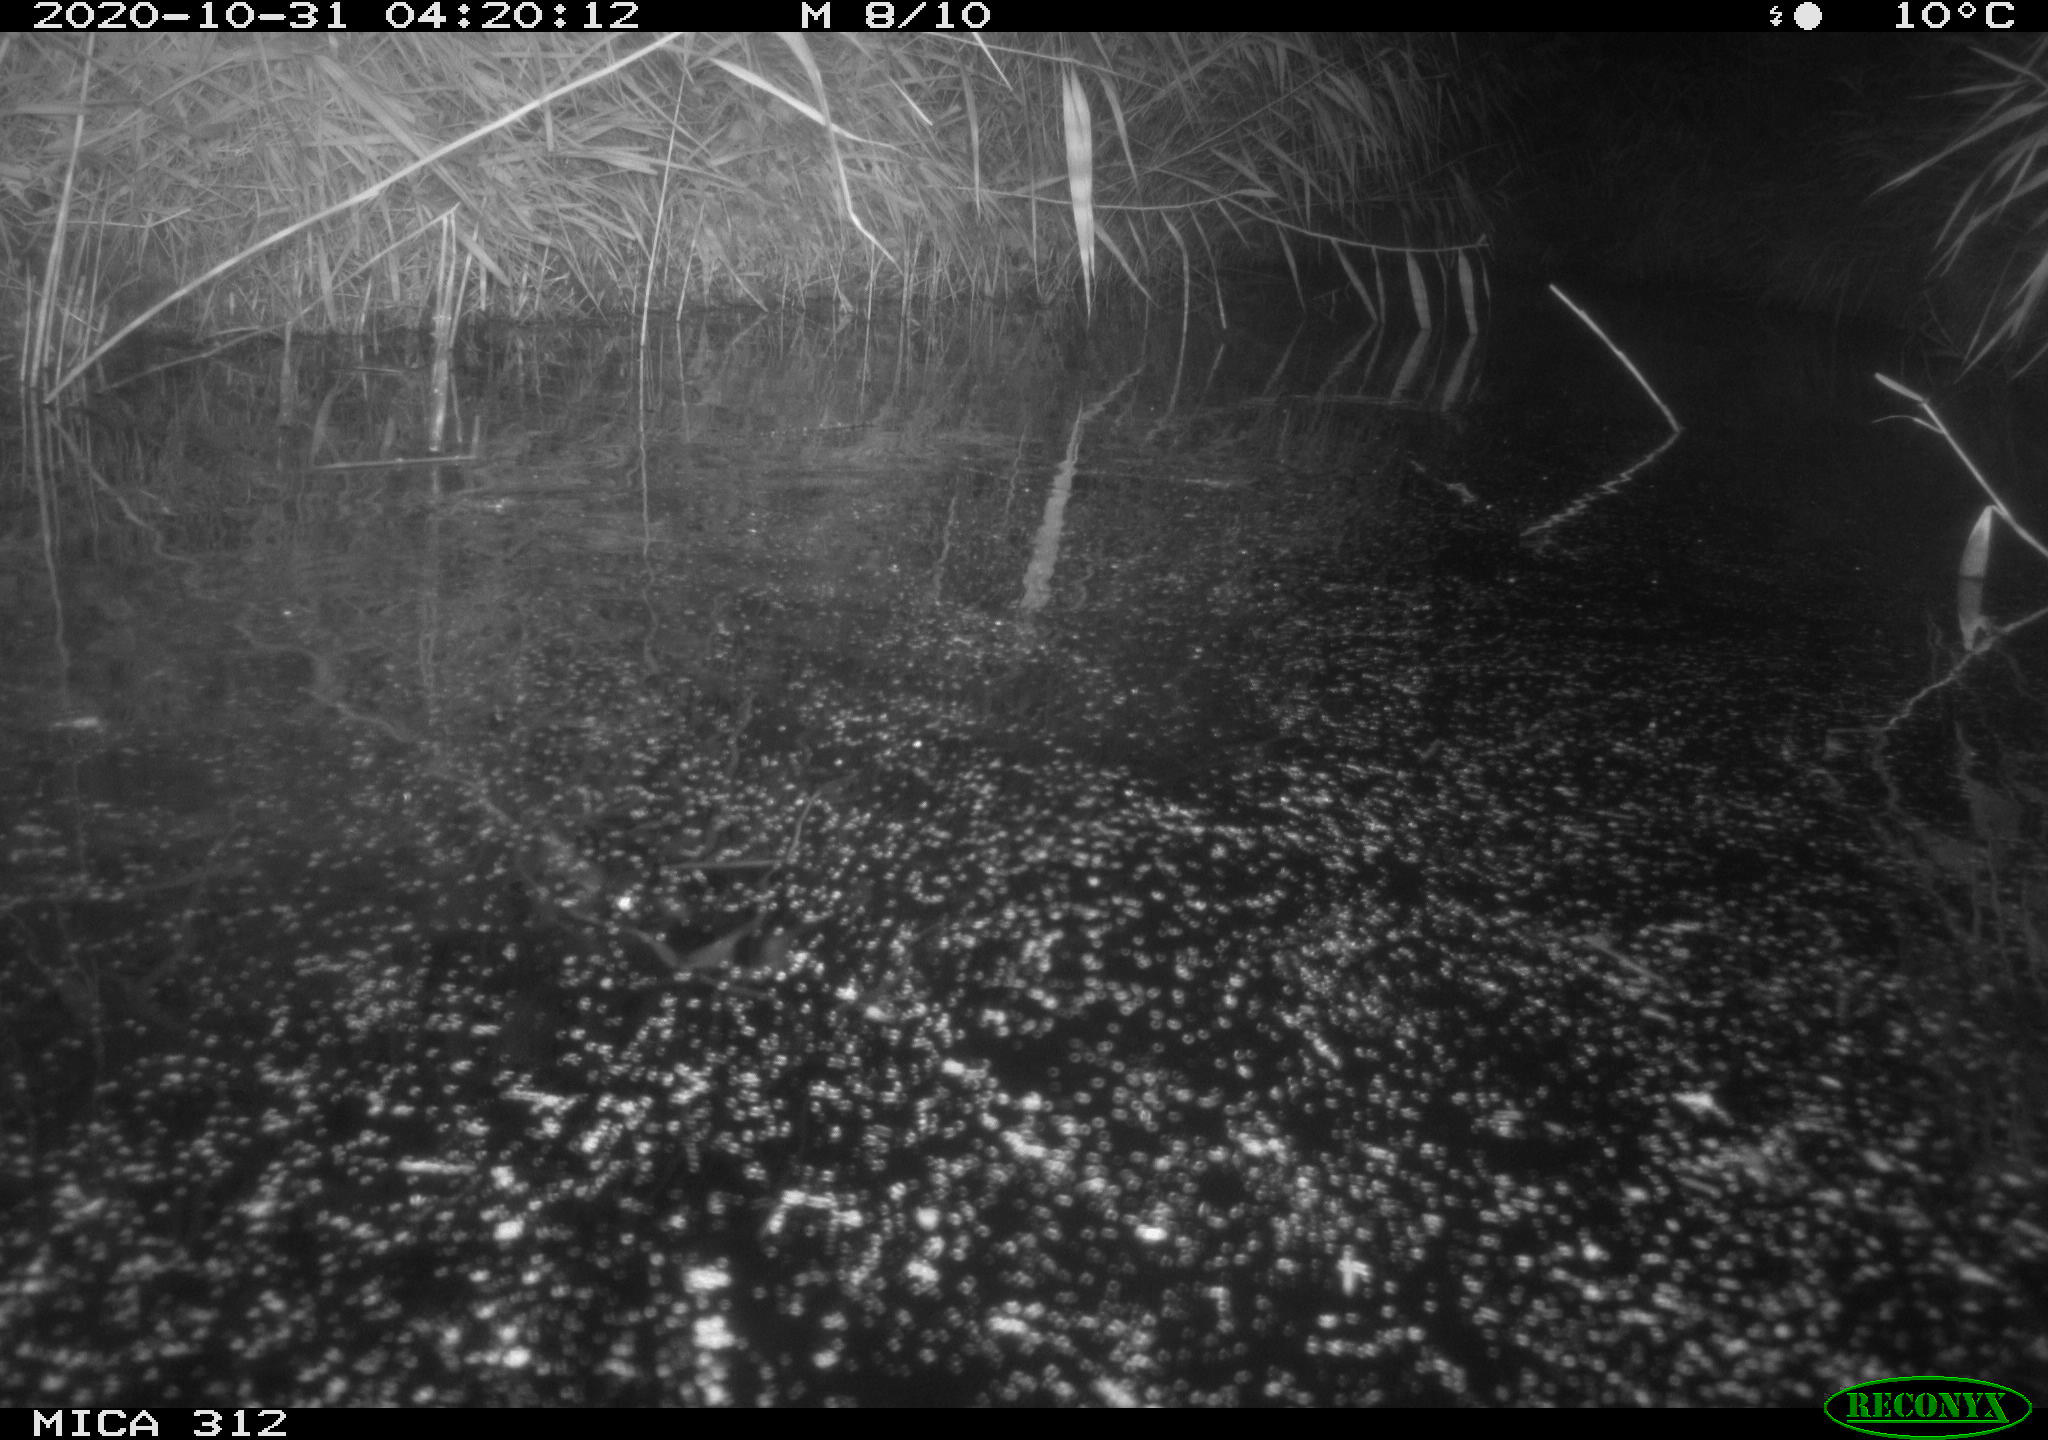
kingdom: Animalia
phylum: Chordata
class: Mammalia
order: Rodentia
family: Muridae
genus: Rattus
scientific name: Rattus norvegicus
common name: Brown rat
